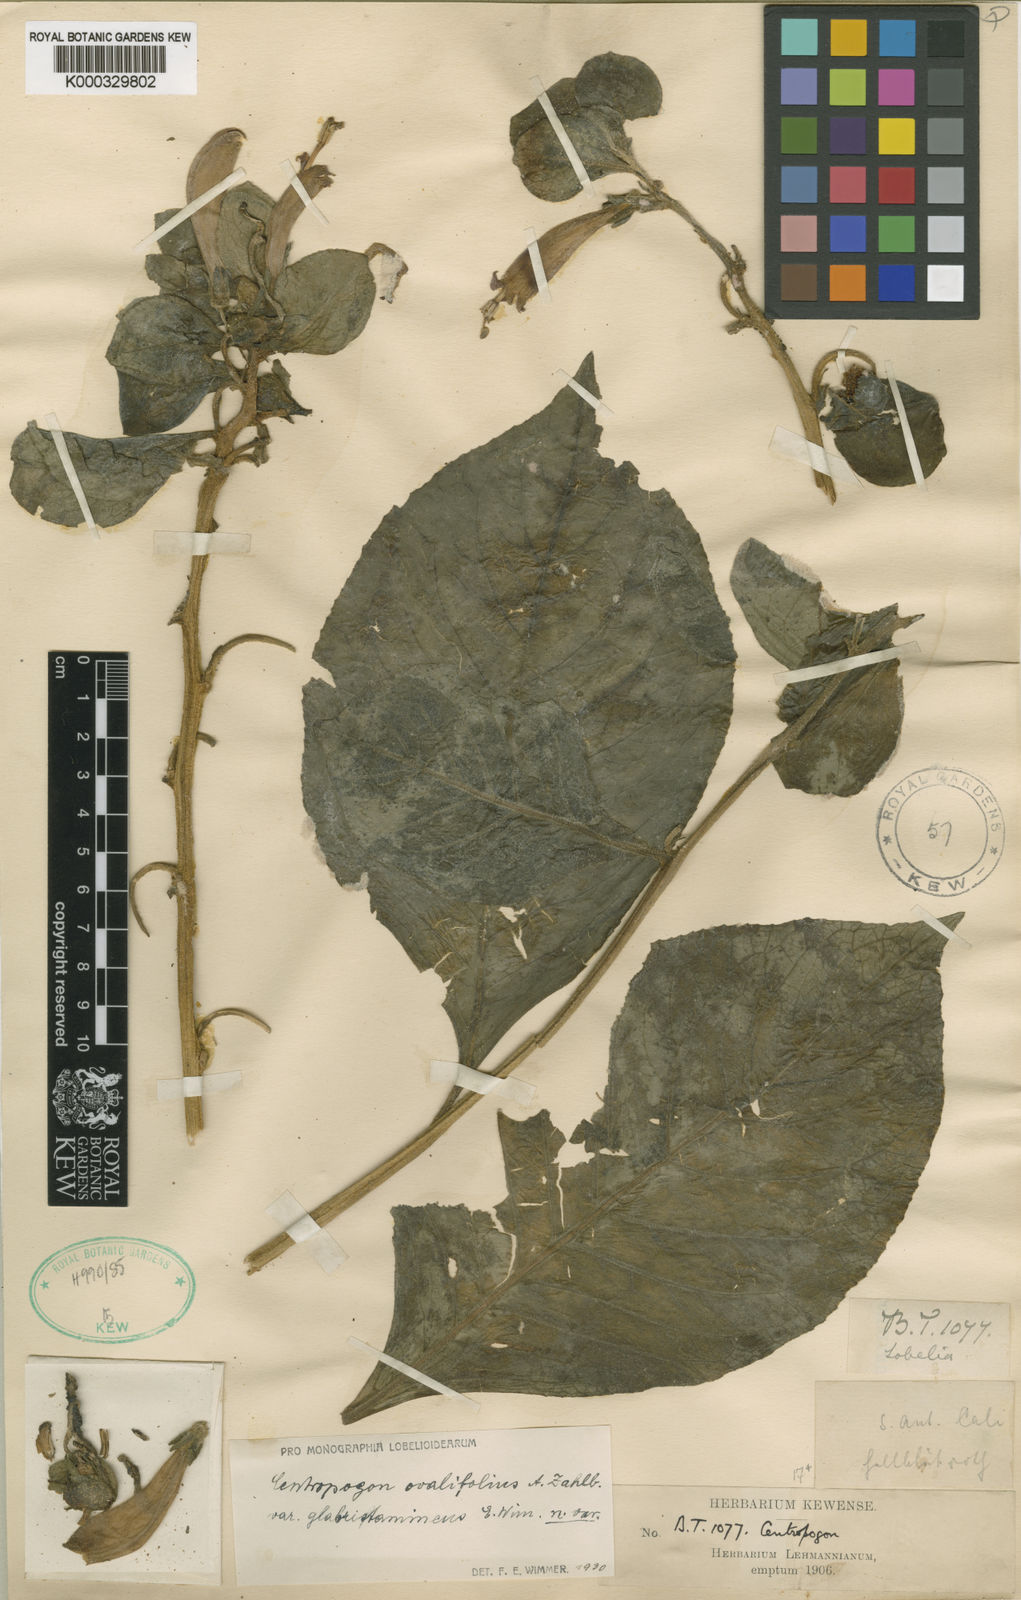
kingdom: Plantae
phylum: Tracheophyta
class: Magnoliopsida
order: Asterales
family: Campanulaceae
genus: Centropogon
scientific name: Centropogon solanifolius
